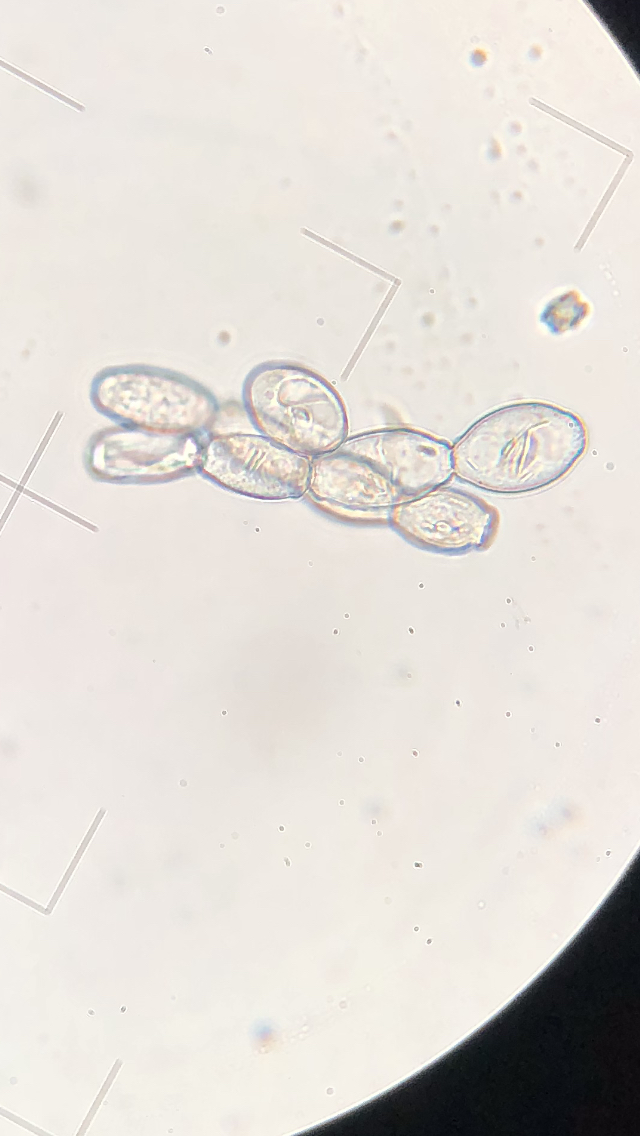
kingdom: Fungi
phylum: Ascomycota
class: Leotiomycetes
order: Helotiales
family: Erysiphaceae
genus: Podosphaera
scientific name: Podosphaera filipendulae
